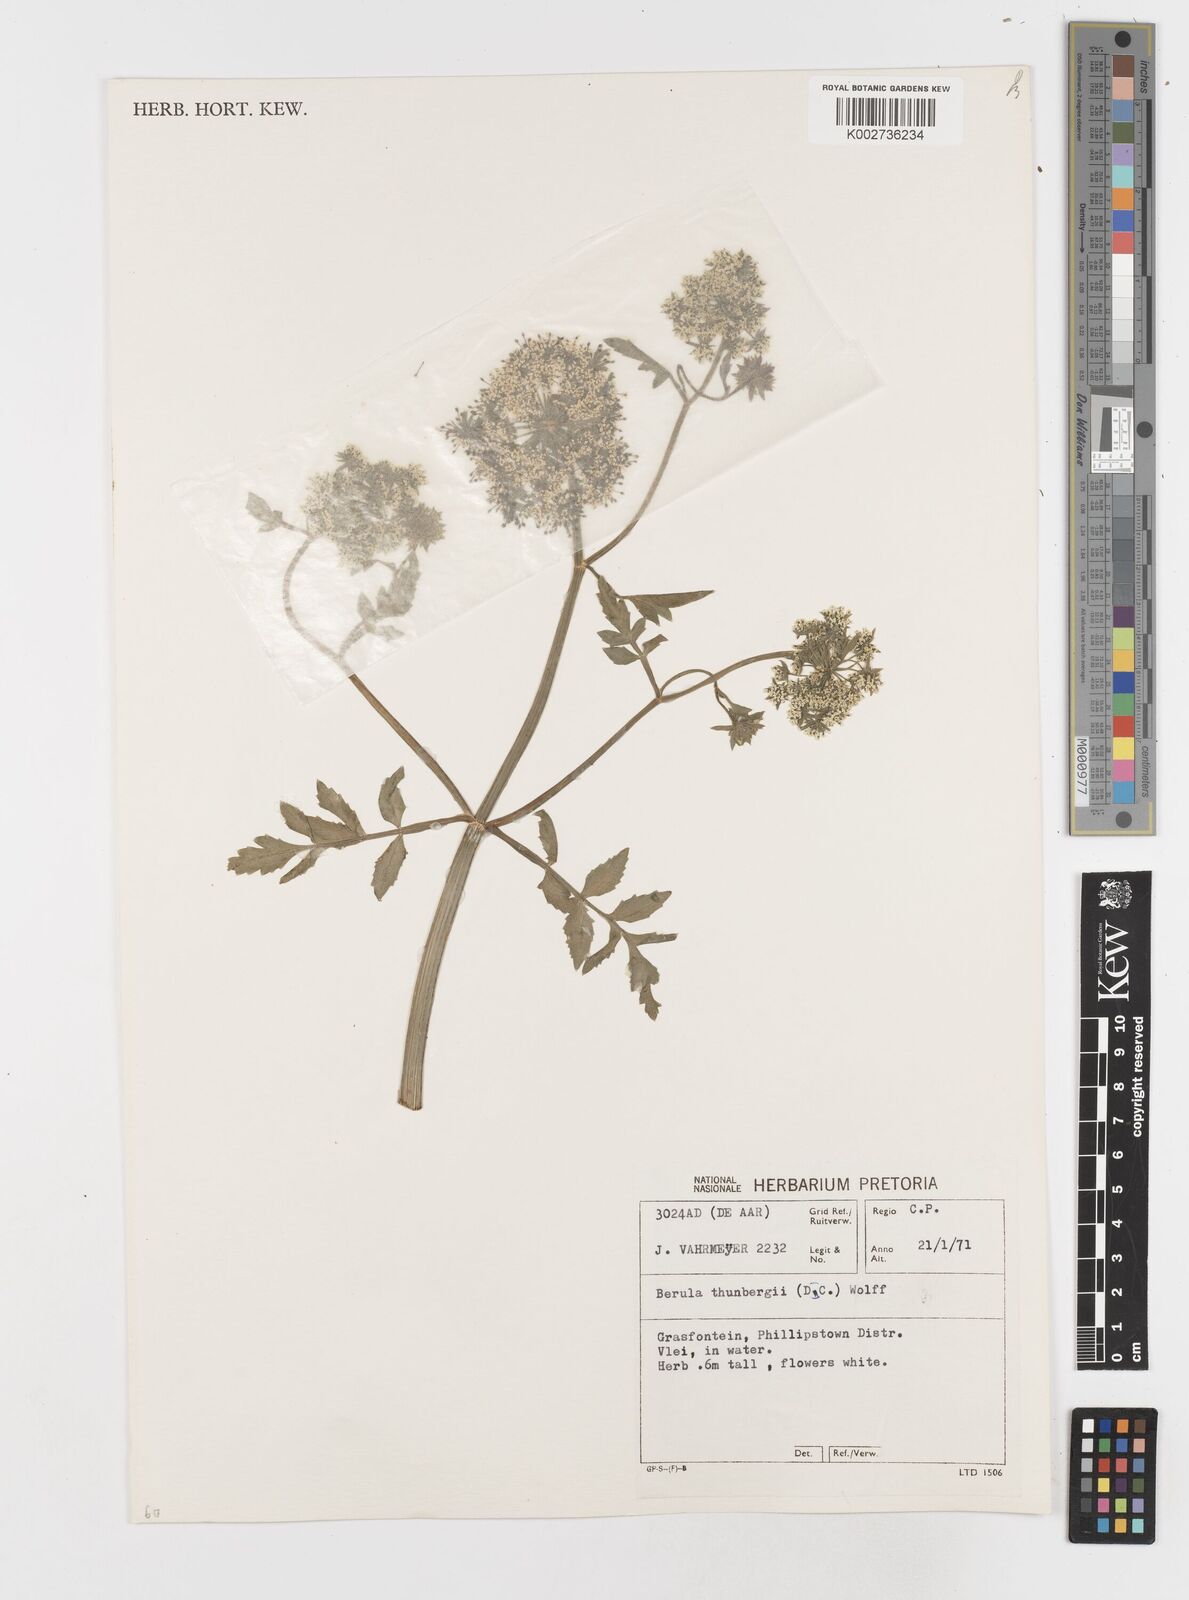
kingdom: Plantae
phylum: Tracheophyta
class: Magnoliopsida
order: Apiales
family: Apiaceae
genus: Berula
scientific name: Berula erecta
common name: Lesser water-parsnip
